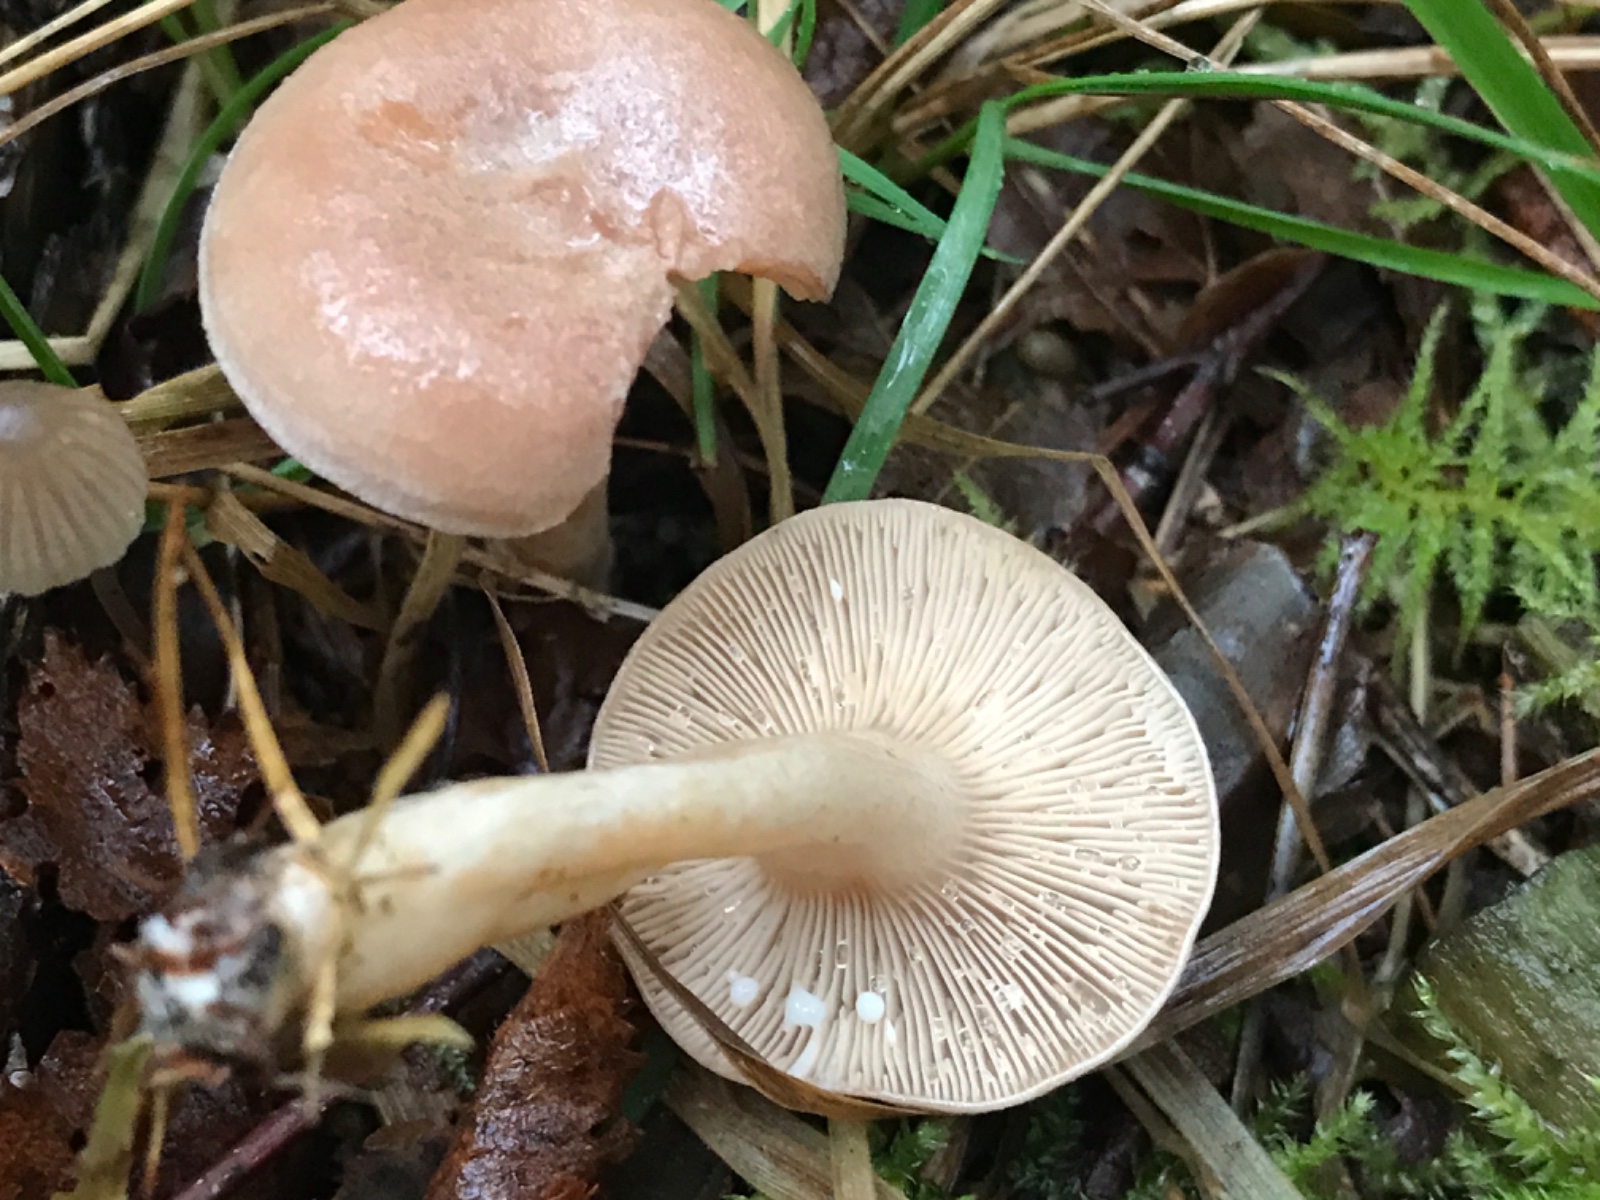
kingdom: Fungi
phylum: Basidiomycota
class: Agaricomycetes
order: Russulales
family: Russulaceae
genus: Lactarius
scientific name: Lactarius
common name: mælkehat
